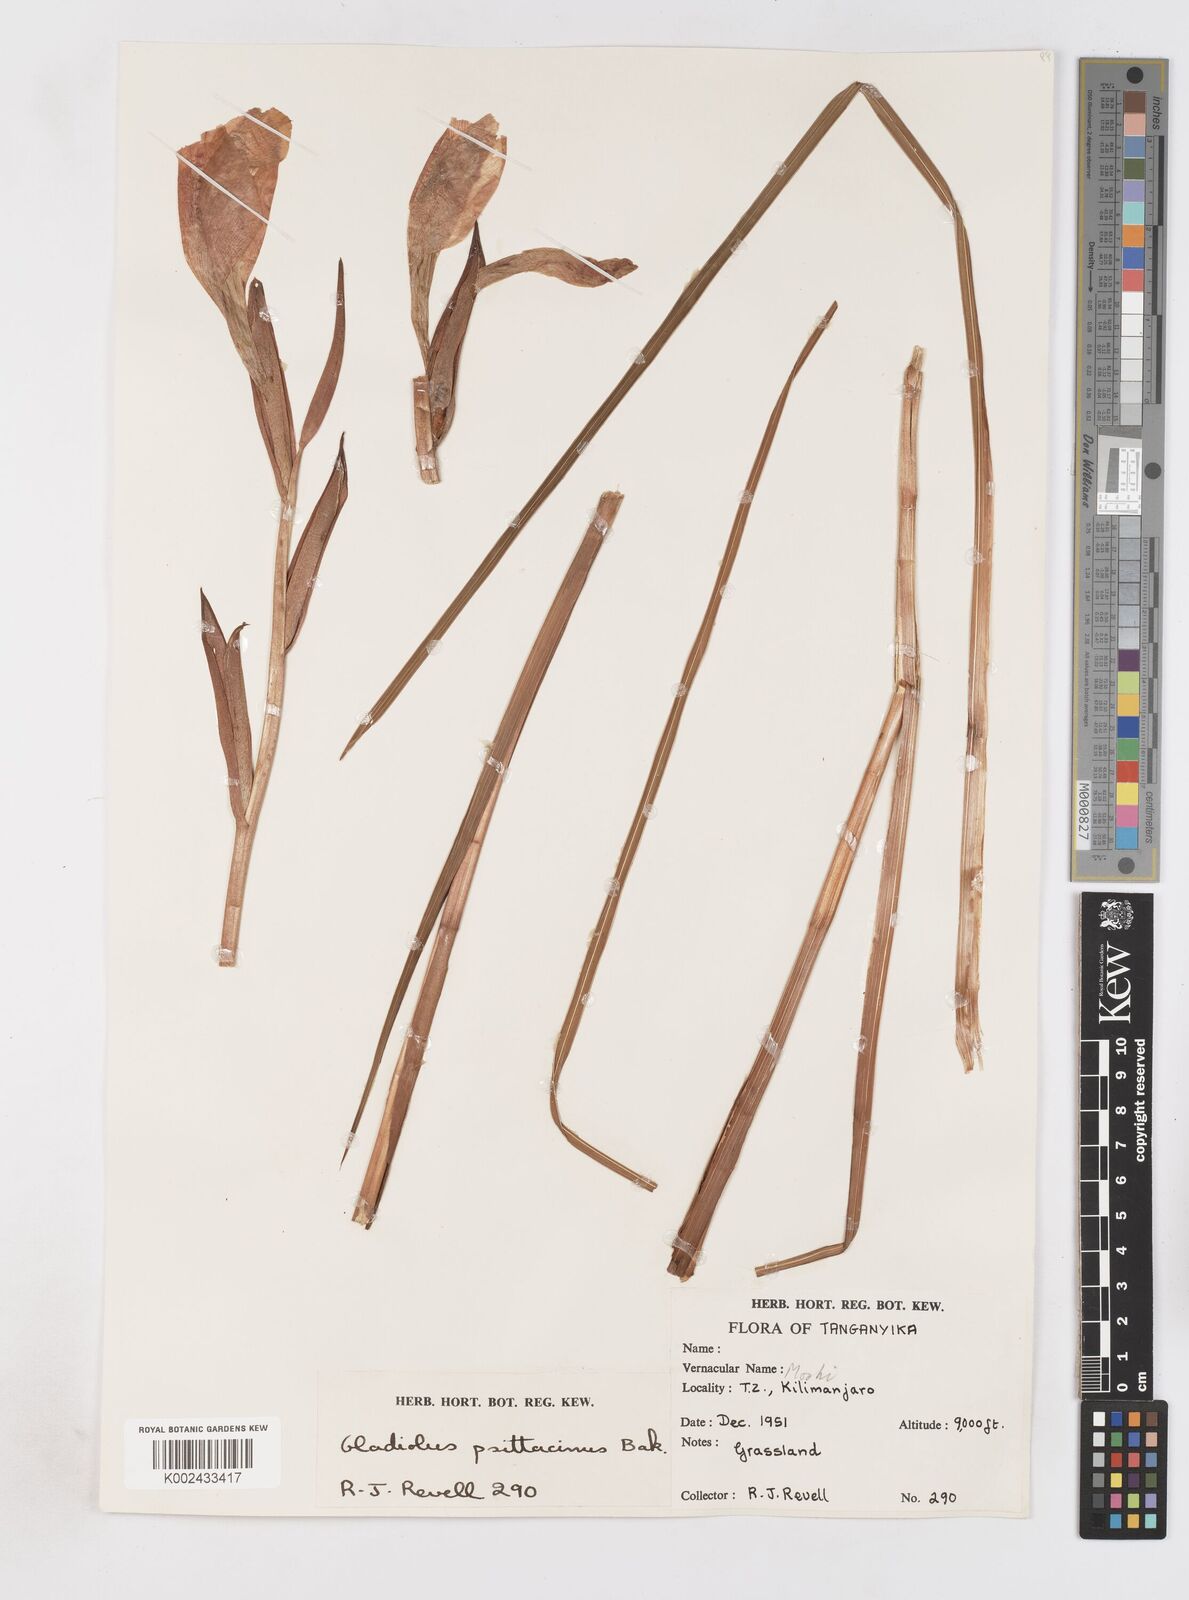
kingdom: Plantae
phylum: Tracheophyta
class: Liliopsida
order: Asparagales
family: Iridaceae
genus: Gladiolus
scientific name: Gladiolus dalenii
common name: Cornflag
